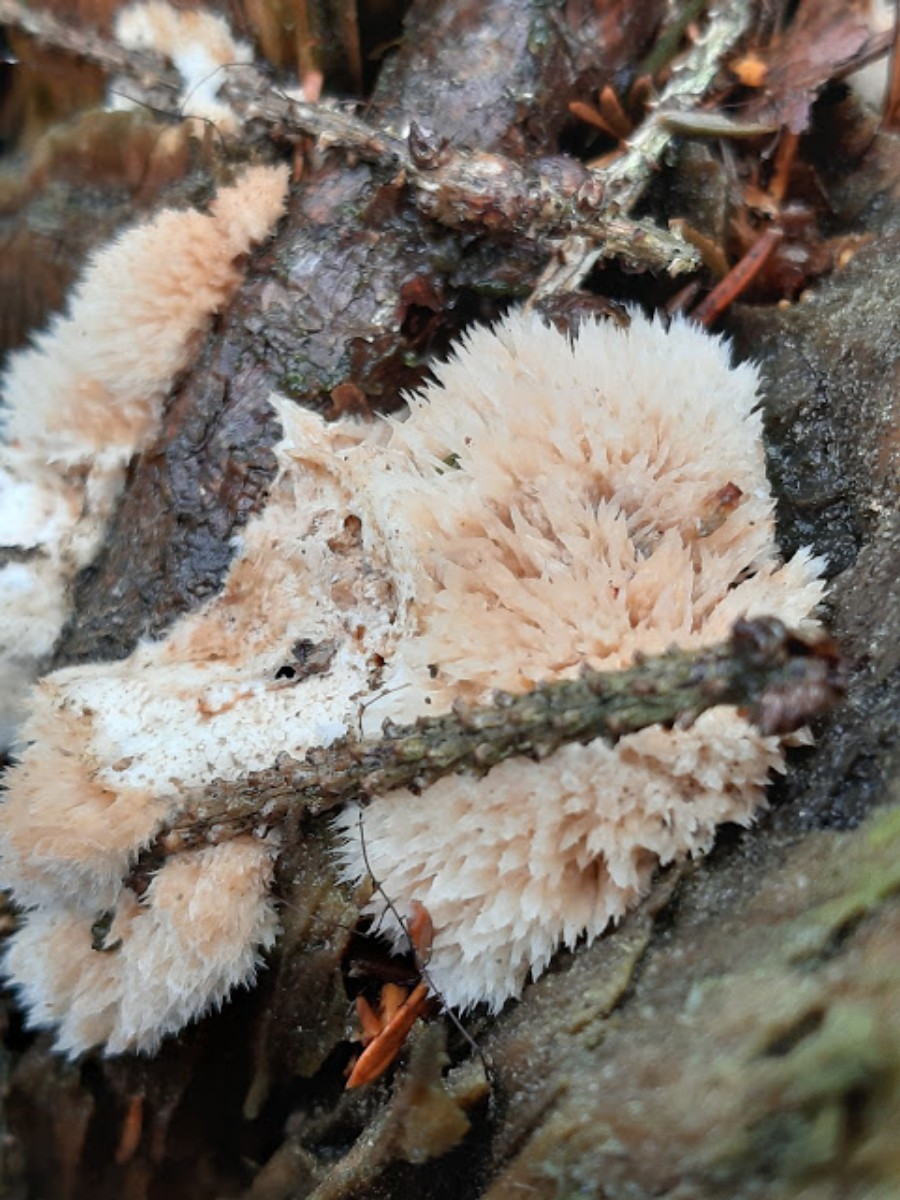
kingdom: Fungi
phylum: Basidiomycota
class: Agaricomycetes
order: Polyporales
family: Dacryobolaceae
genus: Postia
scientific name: Postia ptychogaster
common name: støvende kødporesvamp
